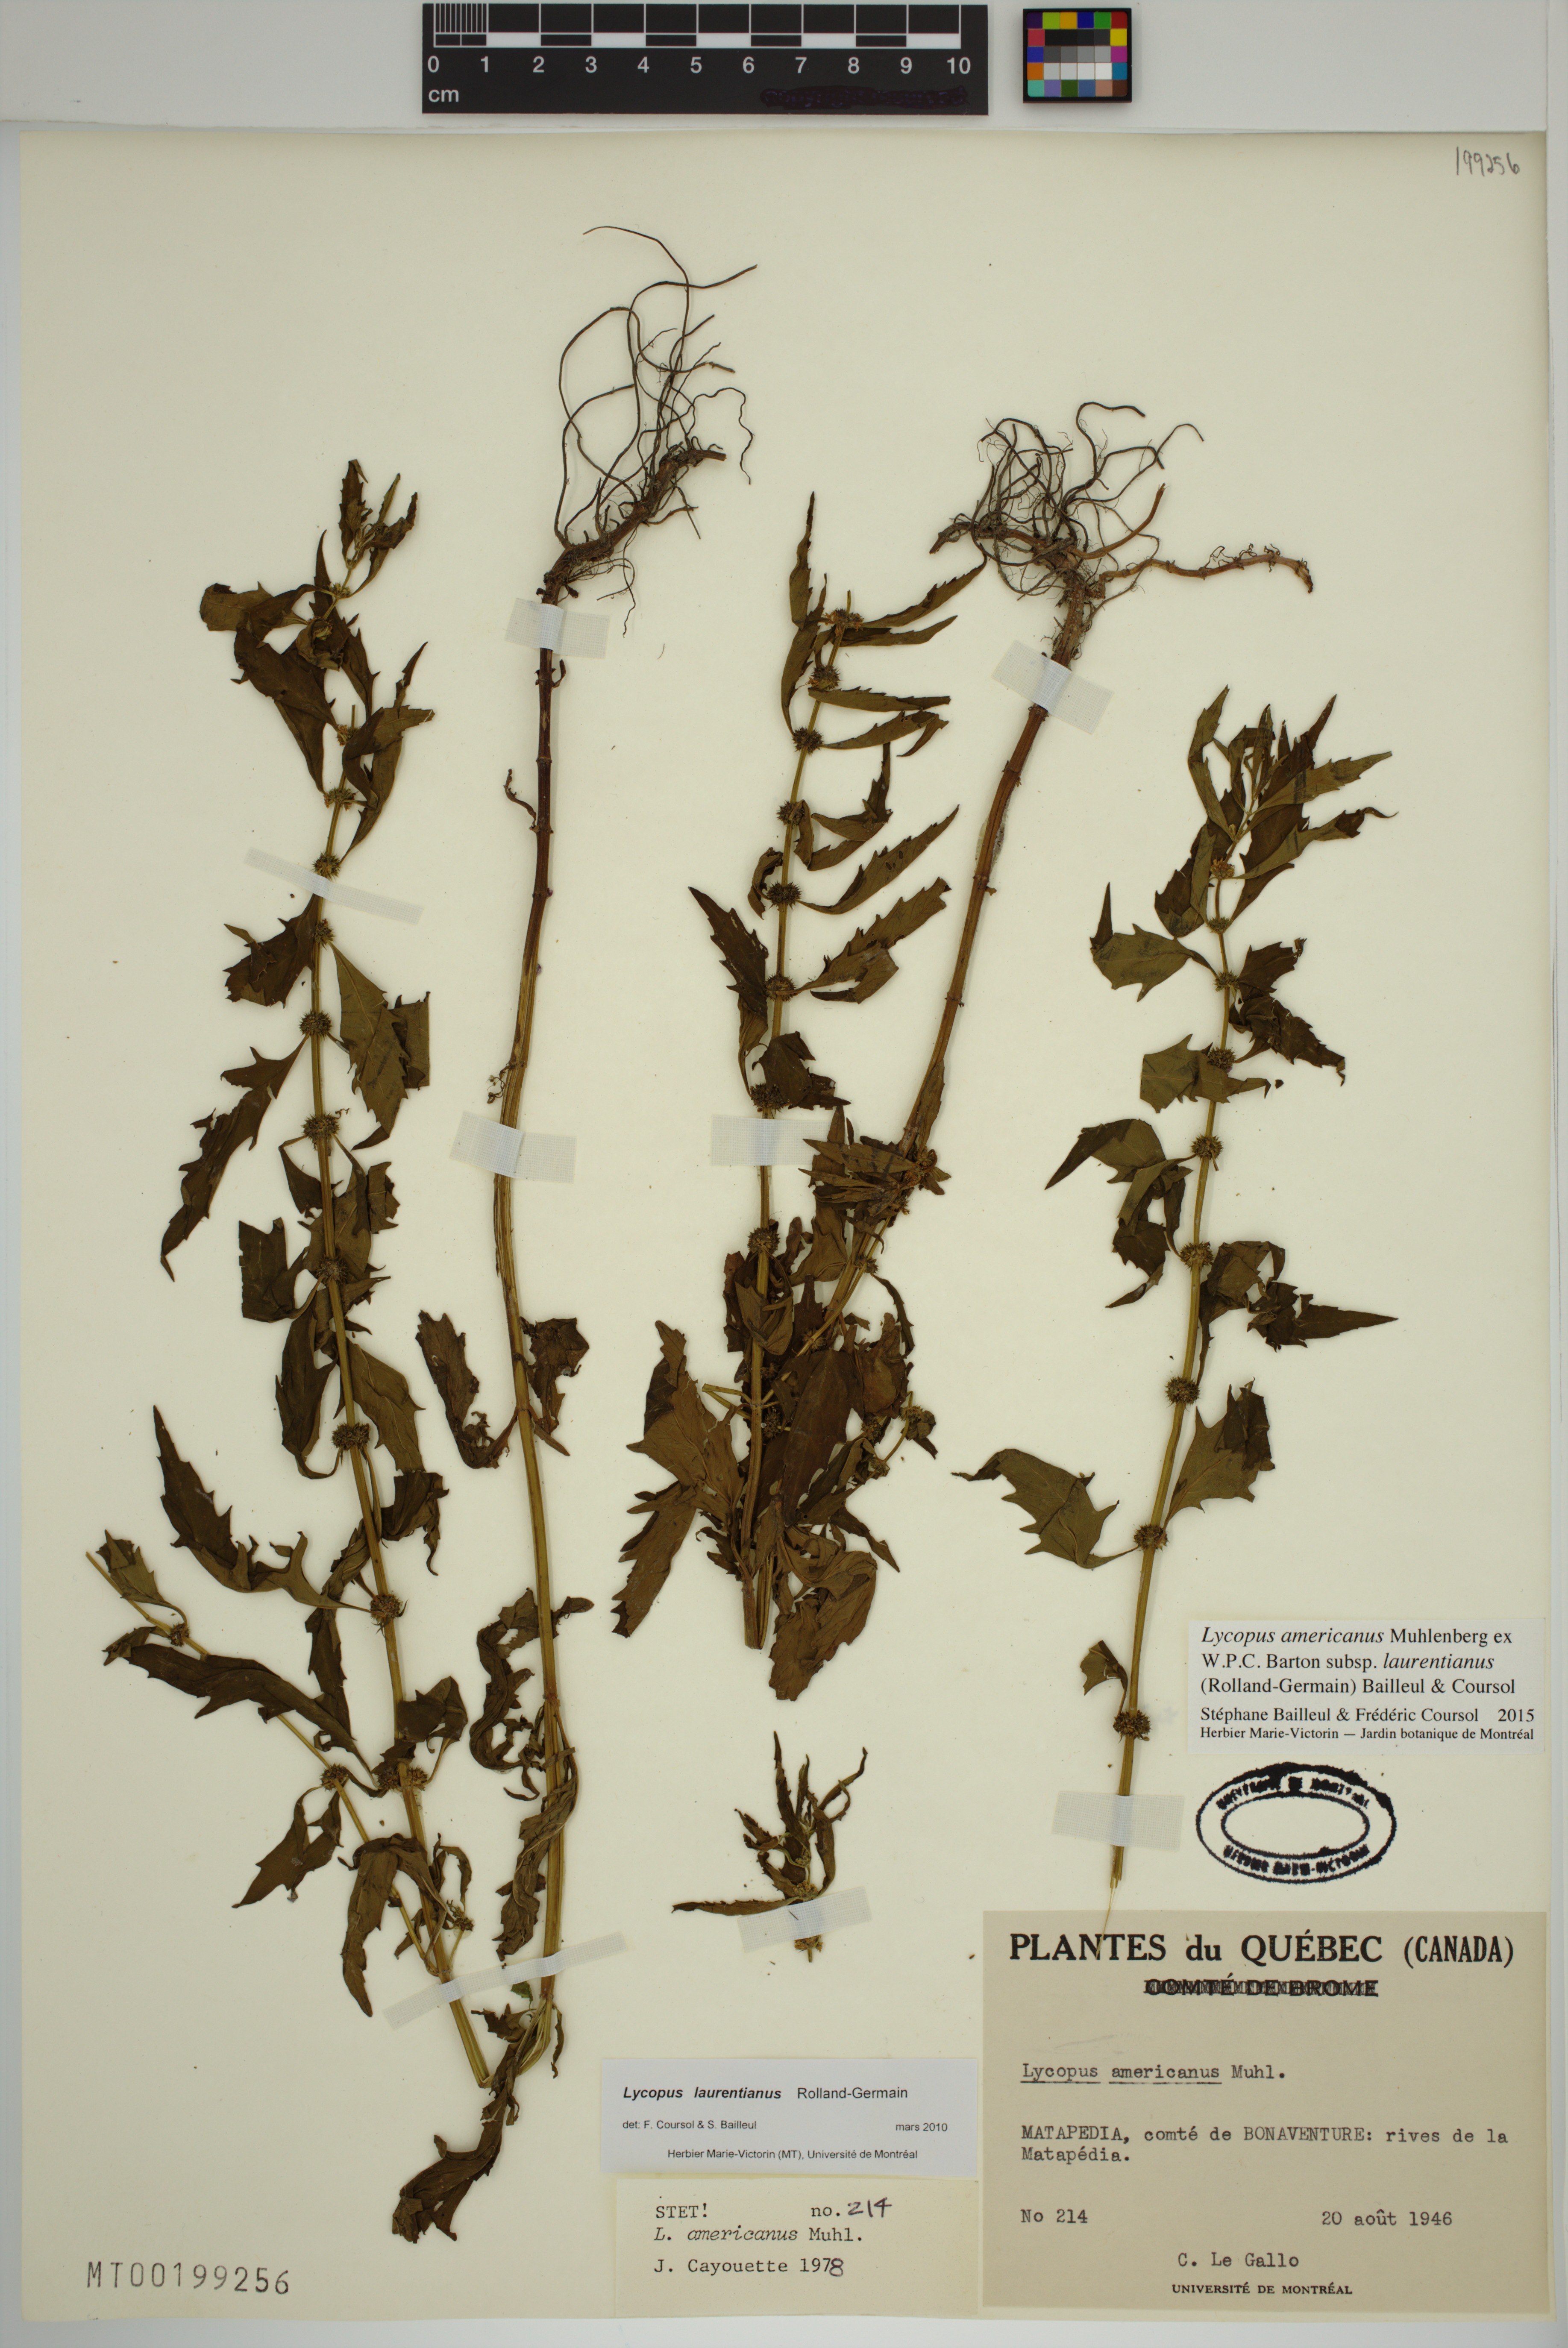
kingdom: Plantae
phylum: Tracheophyta
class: Magnoliopsida
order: Lamiales
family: Lamiaceae
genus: Lycopus
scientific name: Lycopus americanus
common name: American bugleweed
